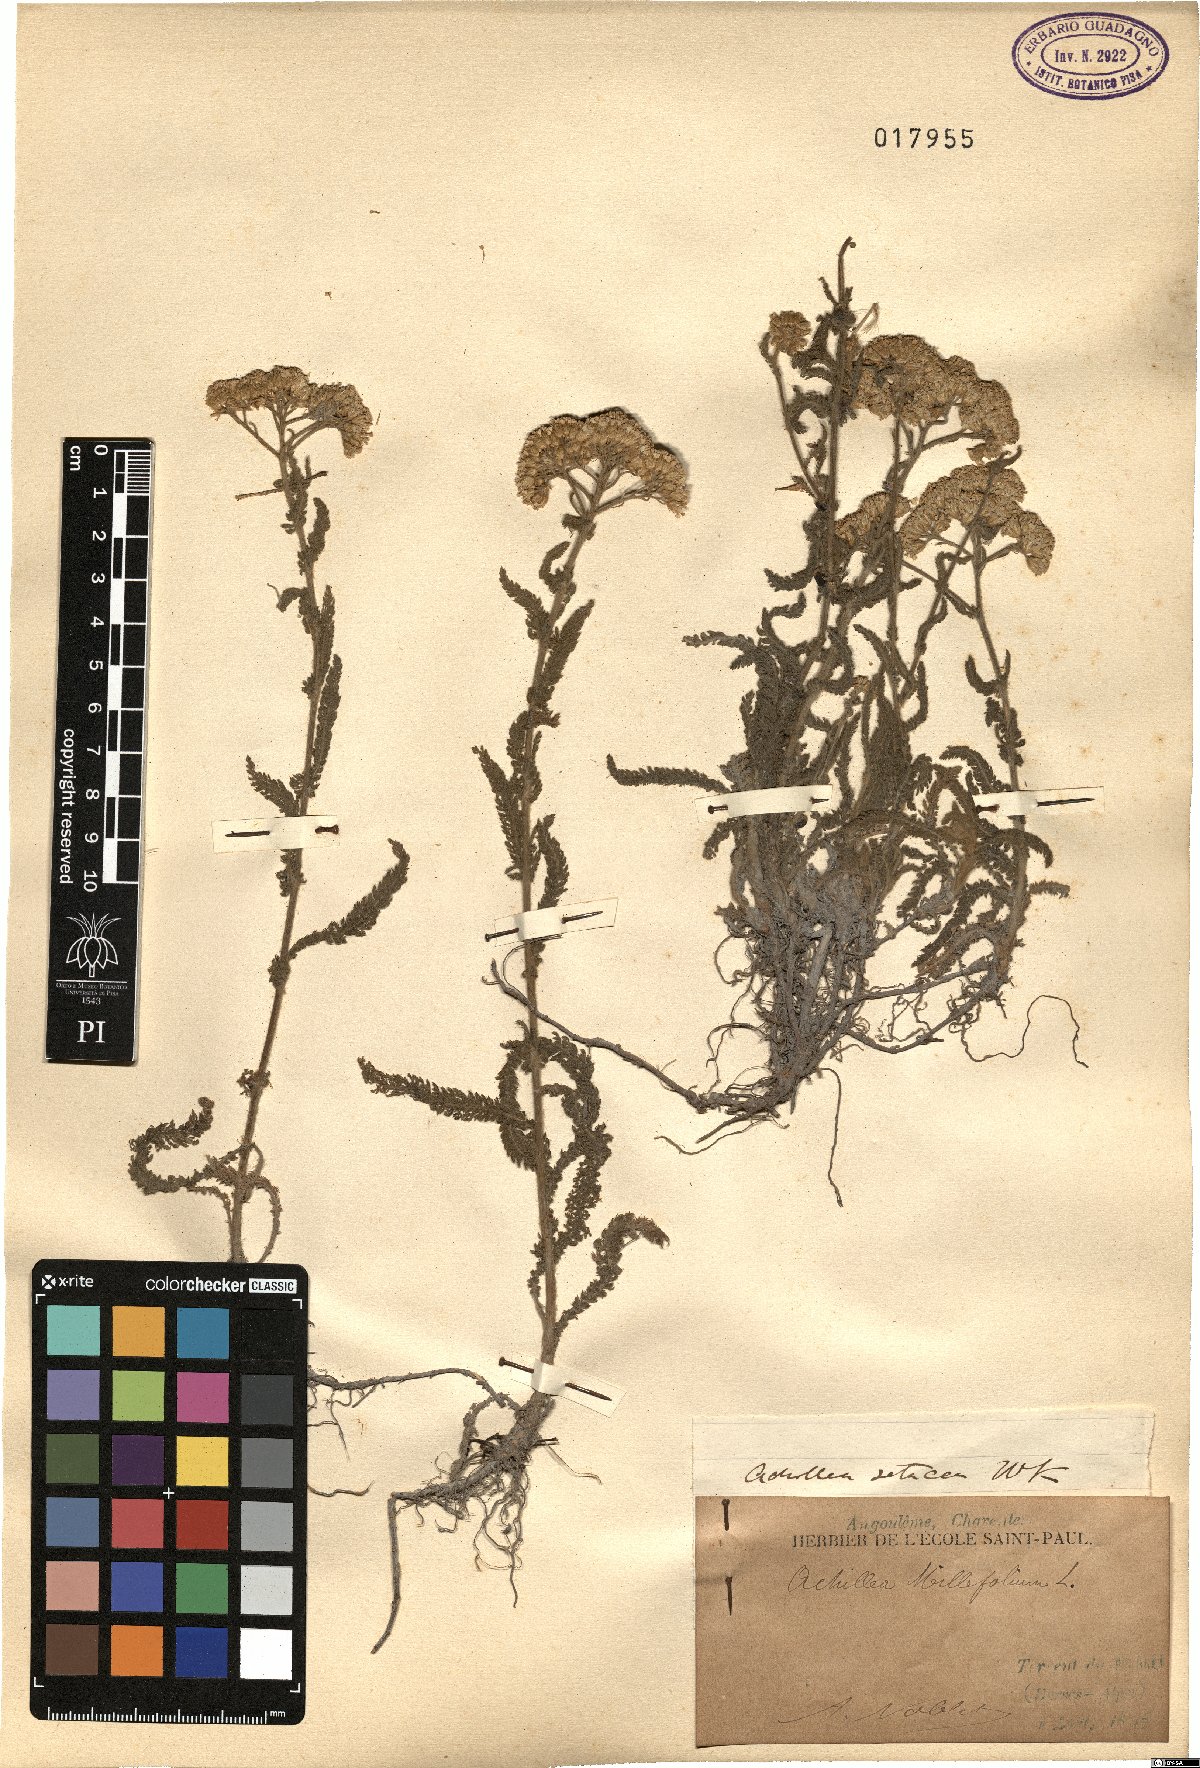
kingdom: Plantae
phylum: Tracheophyta
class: Magnoliopsida
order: Asterales
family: Asteraceae
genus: Achillea
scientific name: Achillea setacea
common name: Bristly yarrow
